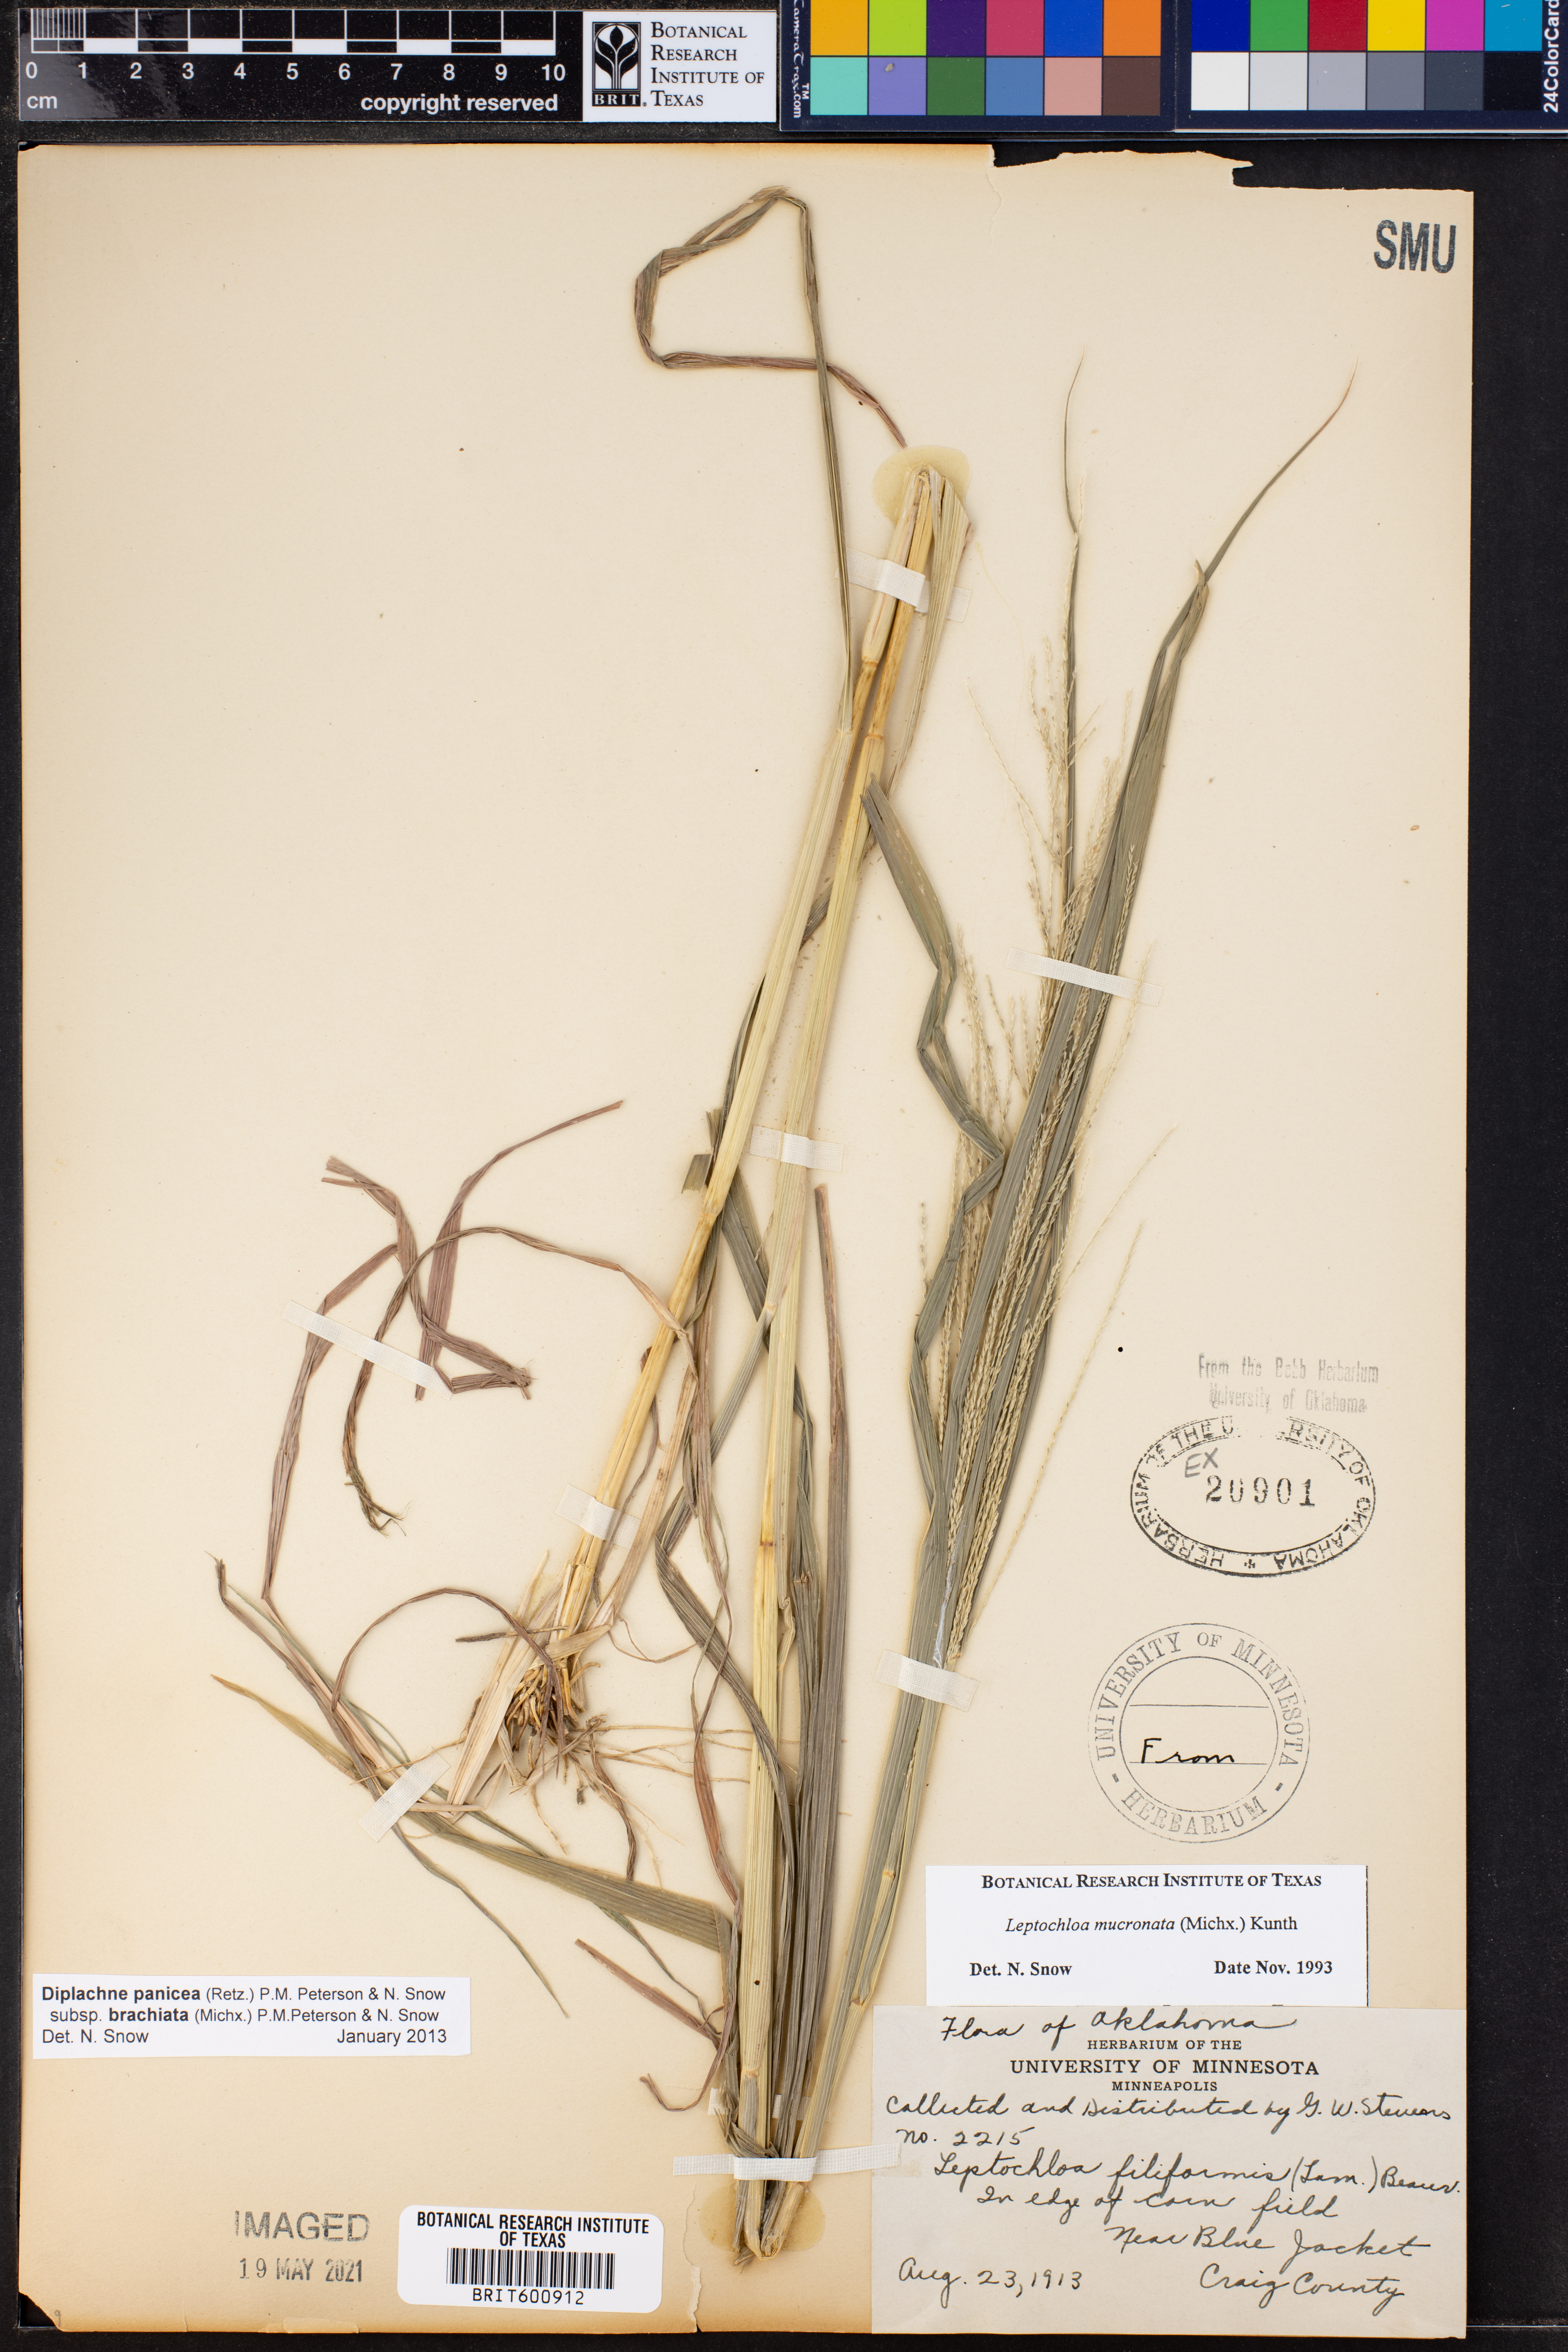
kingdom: Plantae
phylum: Tracheophyta
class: Liliopsida
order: Poales
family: Poaceae
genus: Diplachne
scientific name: Diplachne
